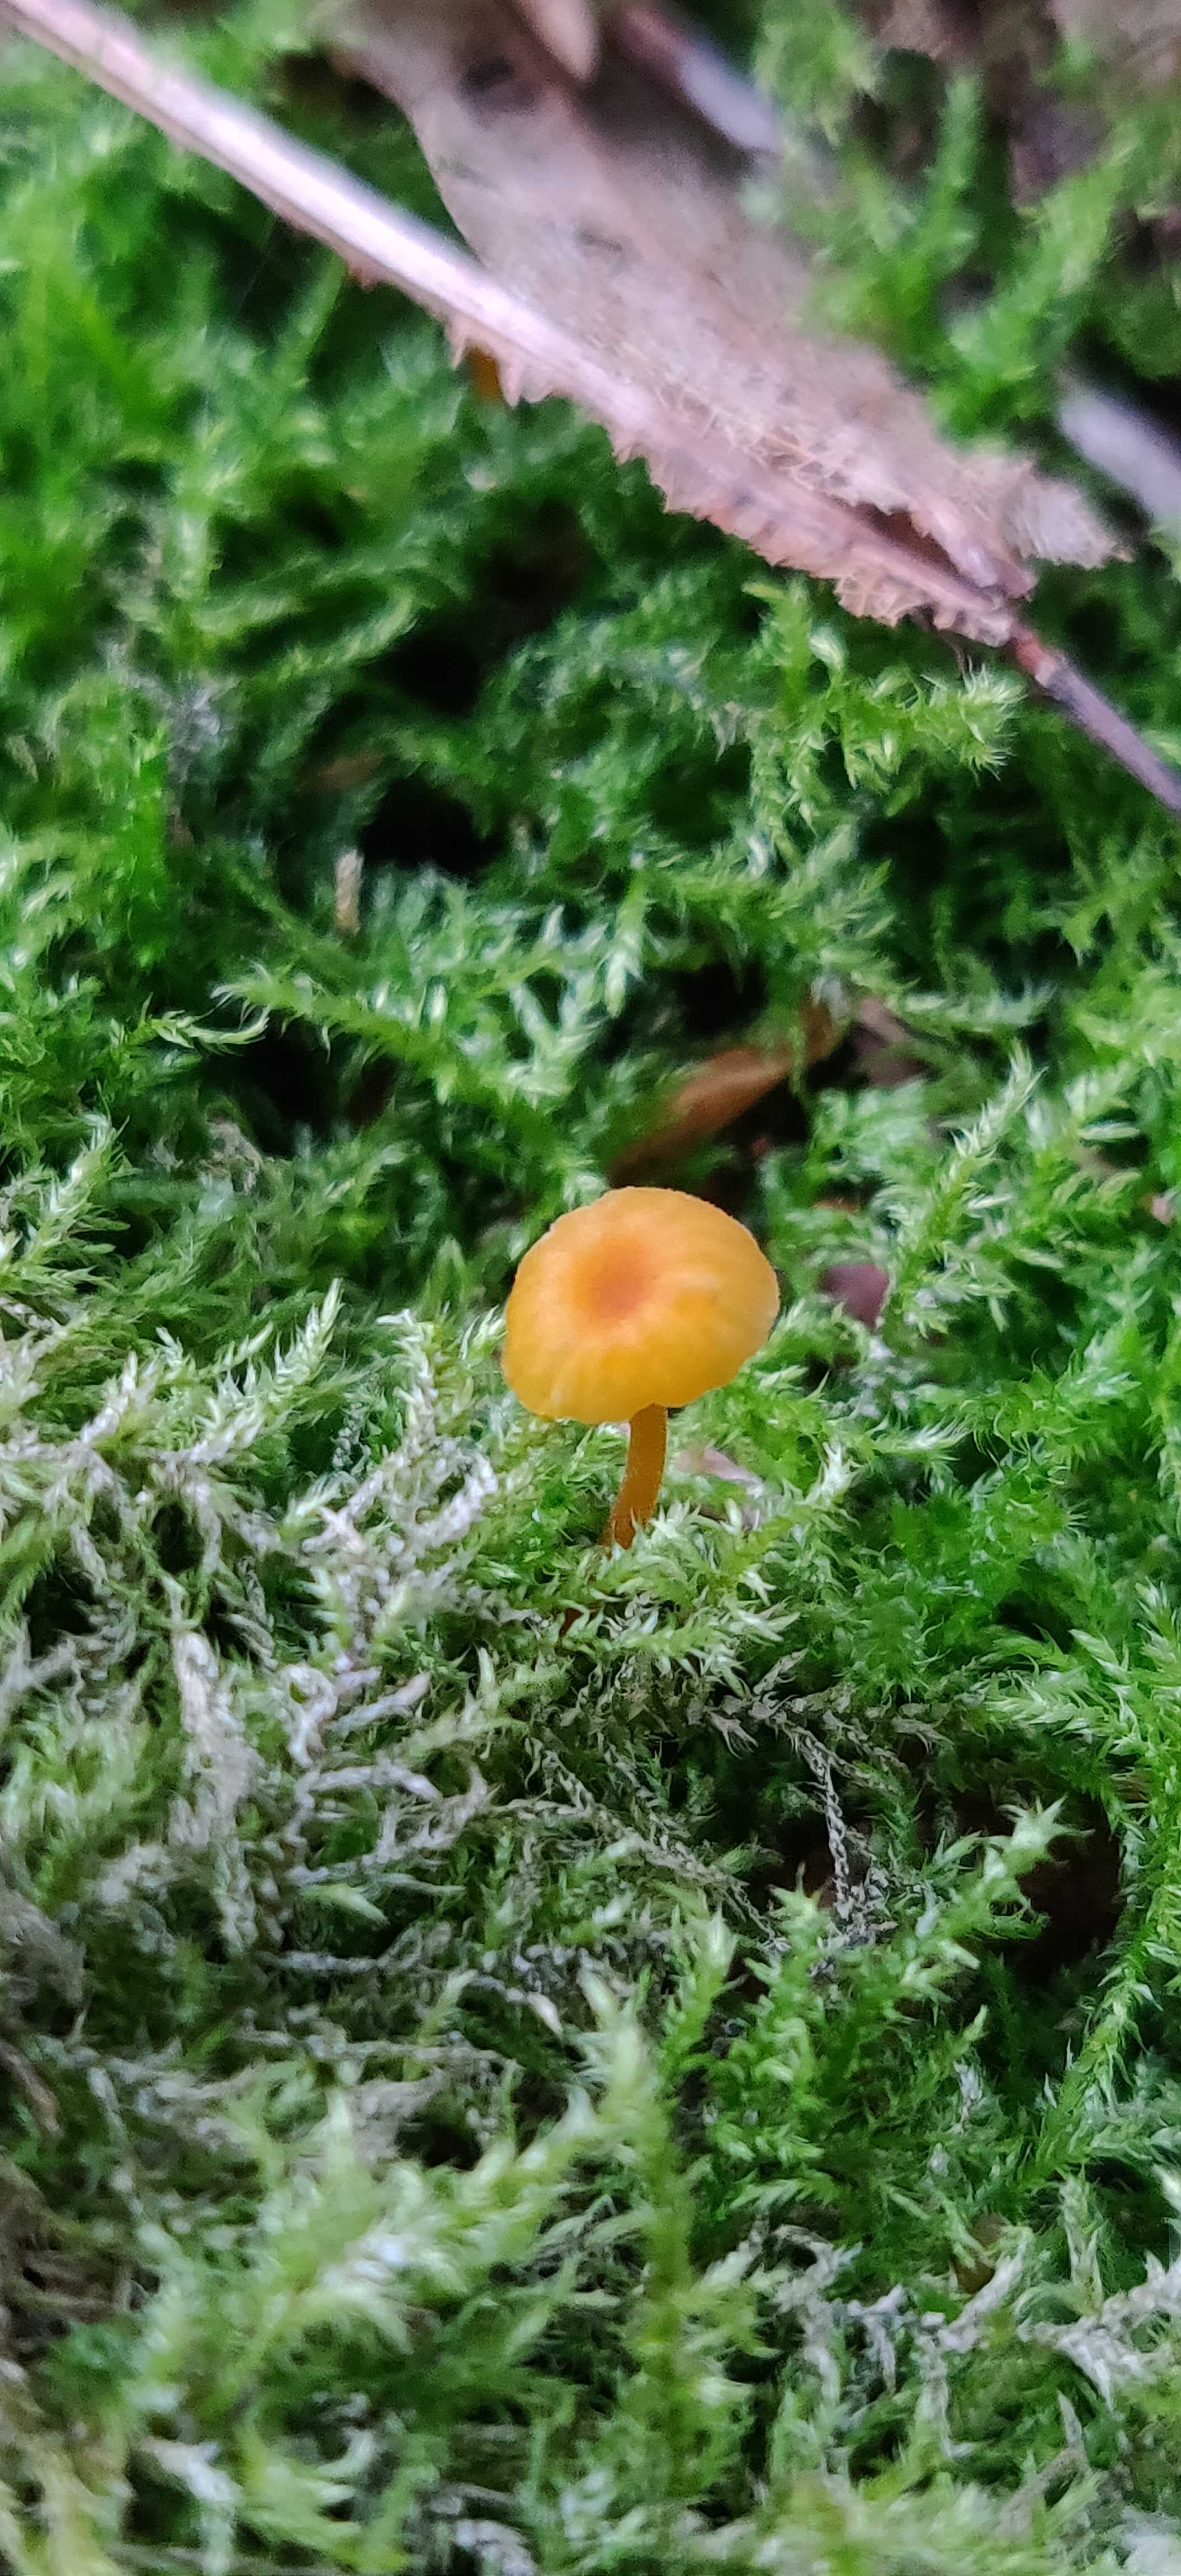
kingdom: Fungi
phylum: Basidiomycota
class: Agaricomycetes
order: Hymenochaetales
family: Rickenellaceae
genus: Rickenella
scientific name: Rickenella fibula
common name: orange mosnavlehat
